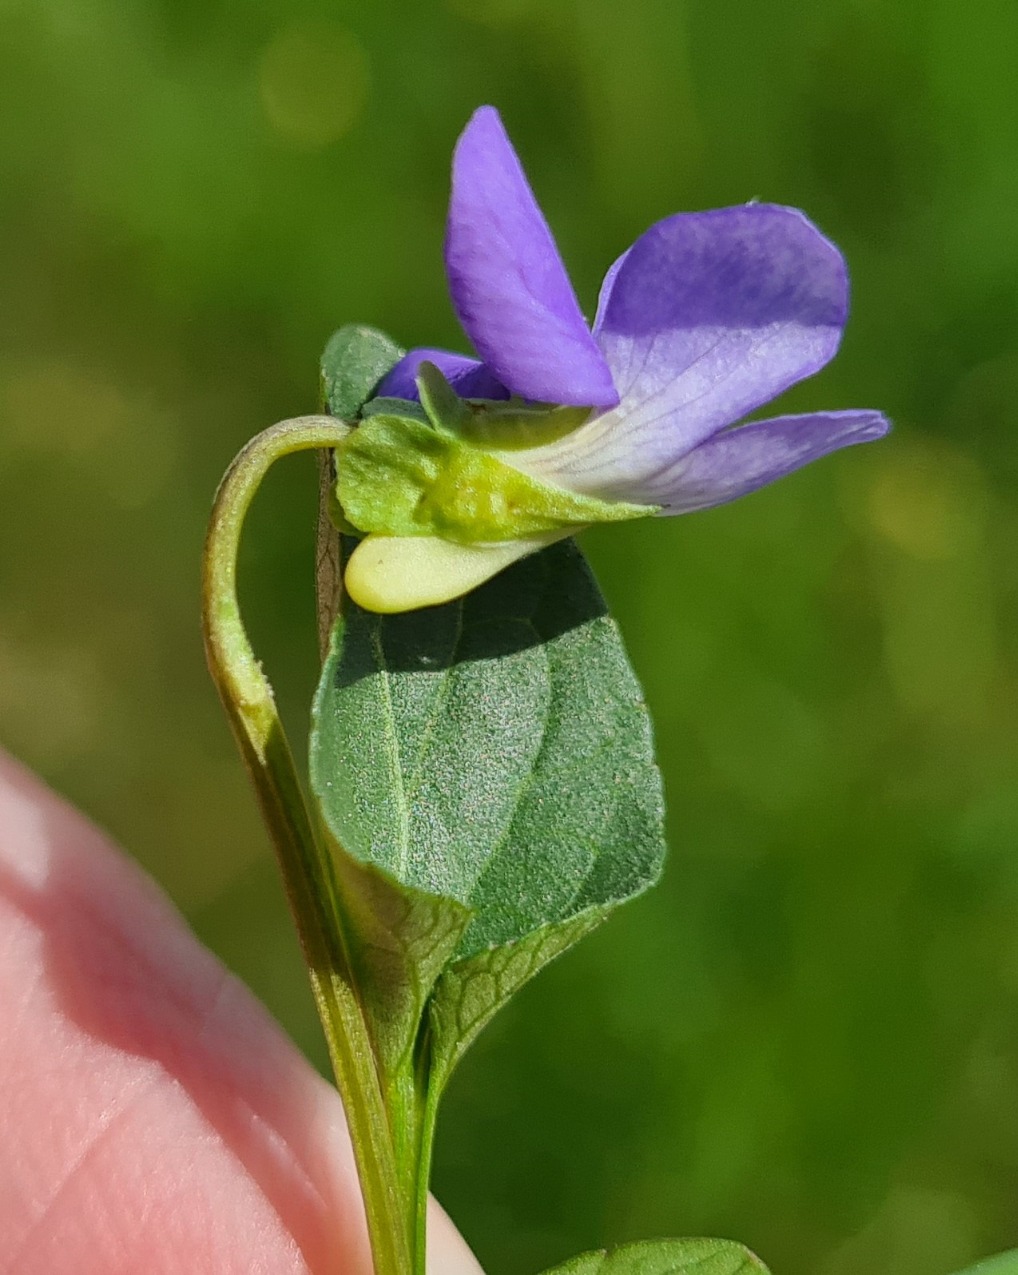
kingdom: Plantae
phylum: Tracheophyta
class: Magnoliopsida
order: Malpighiales
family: Violaceae
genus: Viola
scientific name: Viola canina
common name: Hunde-viol
